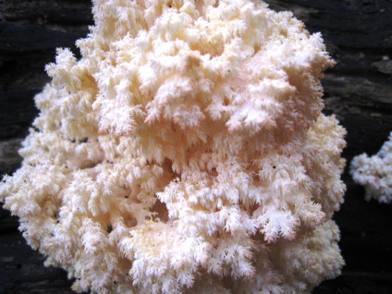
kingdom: Fungi
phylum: Basidiomycota
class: Agaricomycetes
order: Russulales
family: Hericiaceae
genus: Hericium
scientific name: Hericium coralloides
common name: koralpigsvamp
